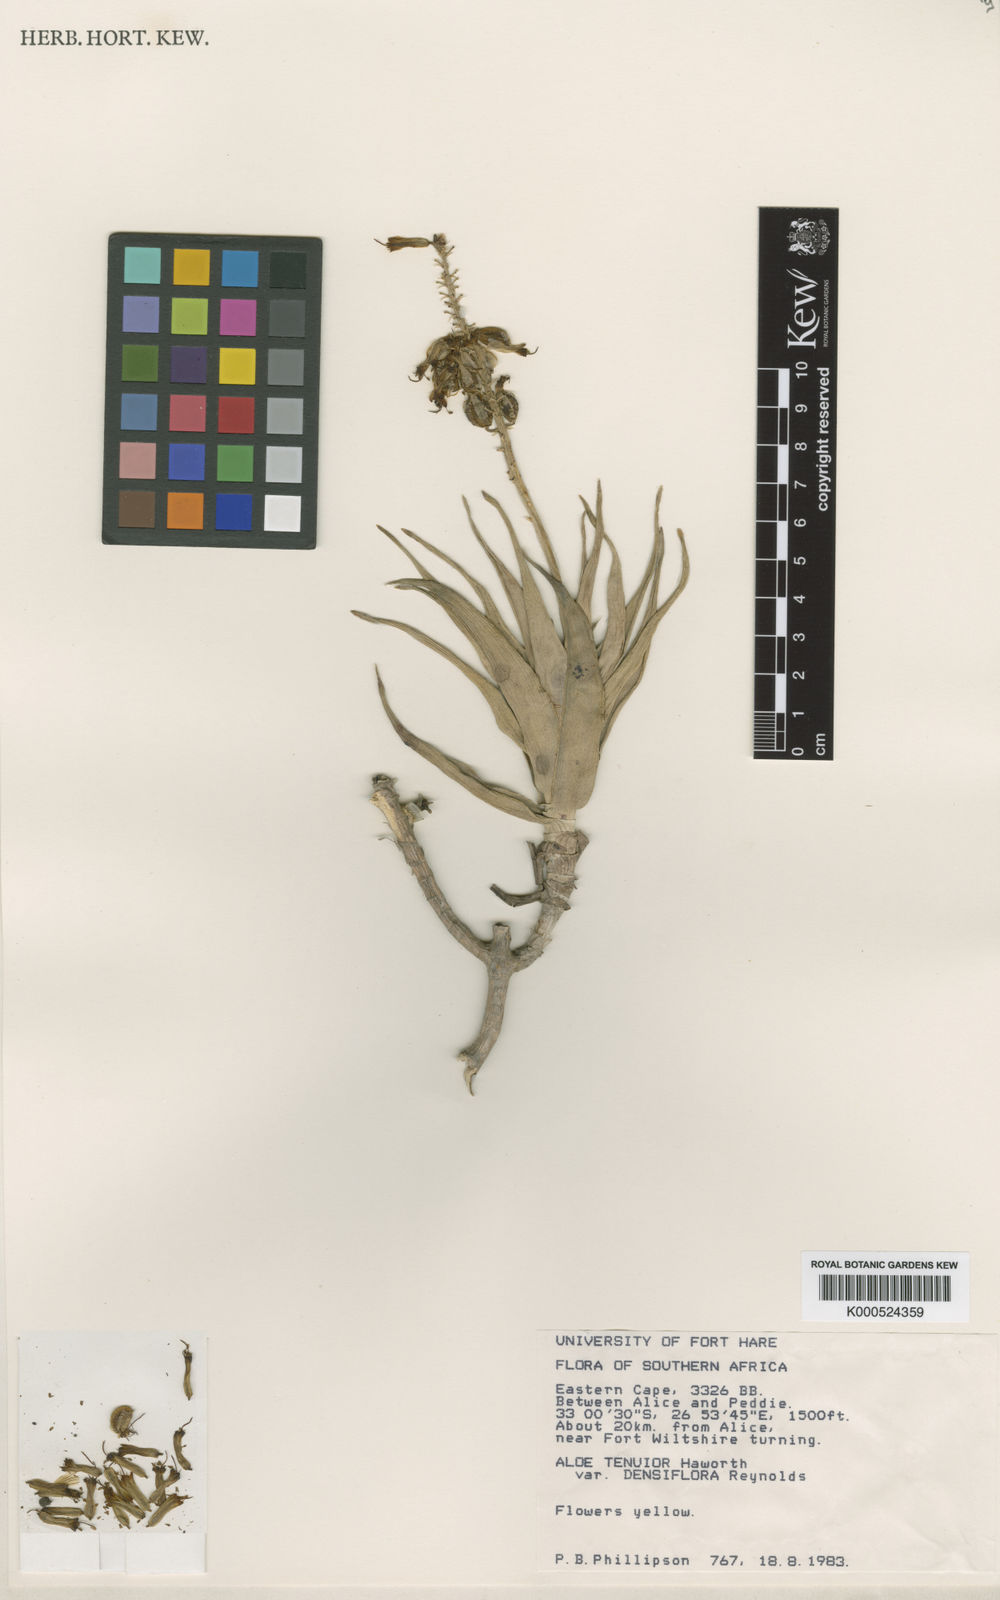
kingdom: Plantae
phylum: Tracheophyta
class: Liliopsida
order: Asparagales
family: Asphodelaceae
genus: Aloiampelos
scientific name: Aloiampelos tenuior
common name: Fence aloe
